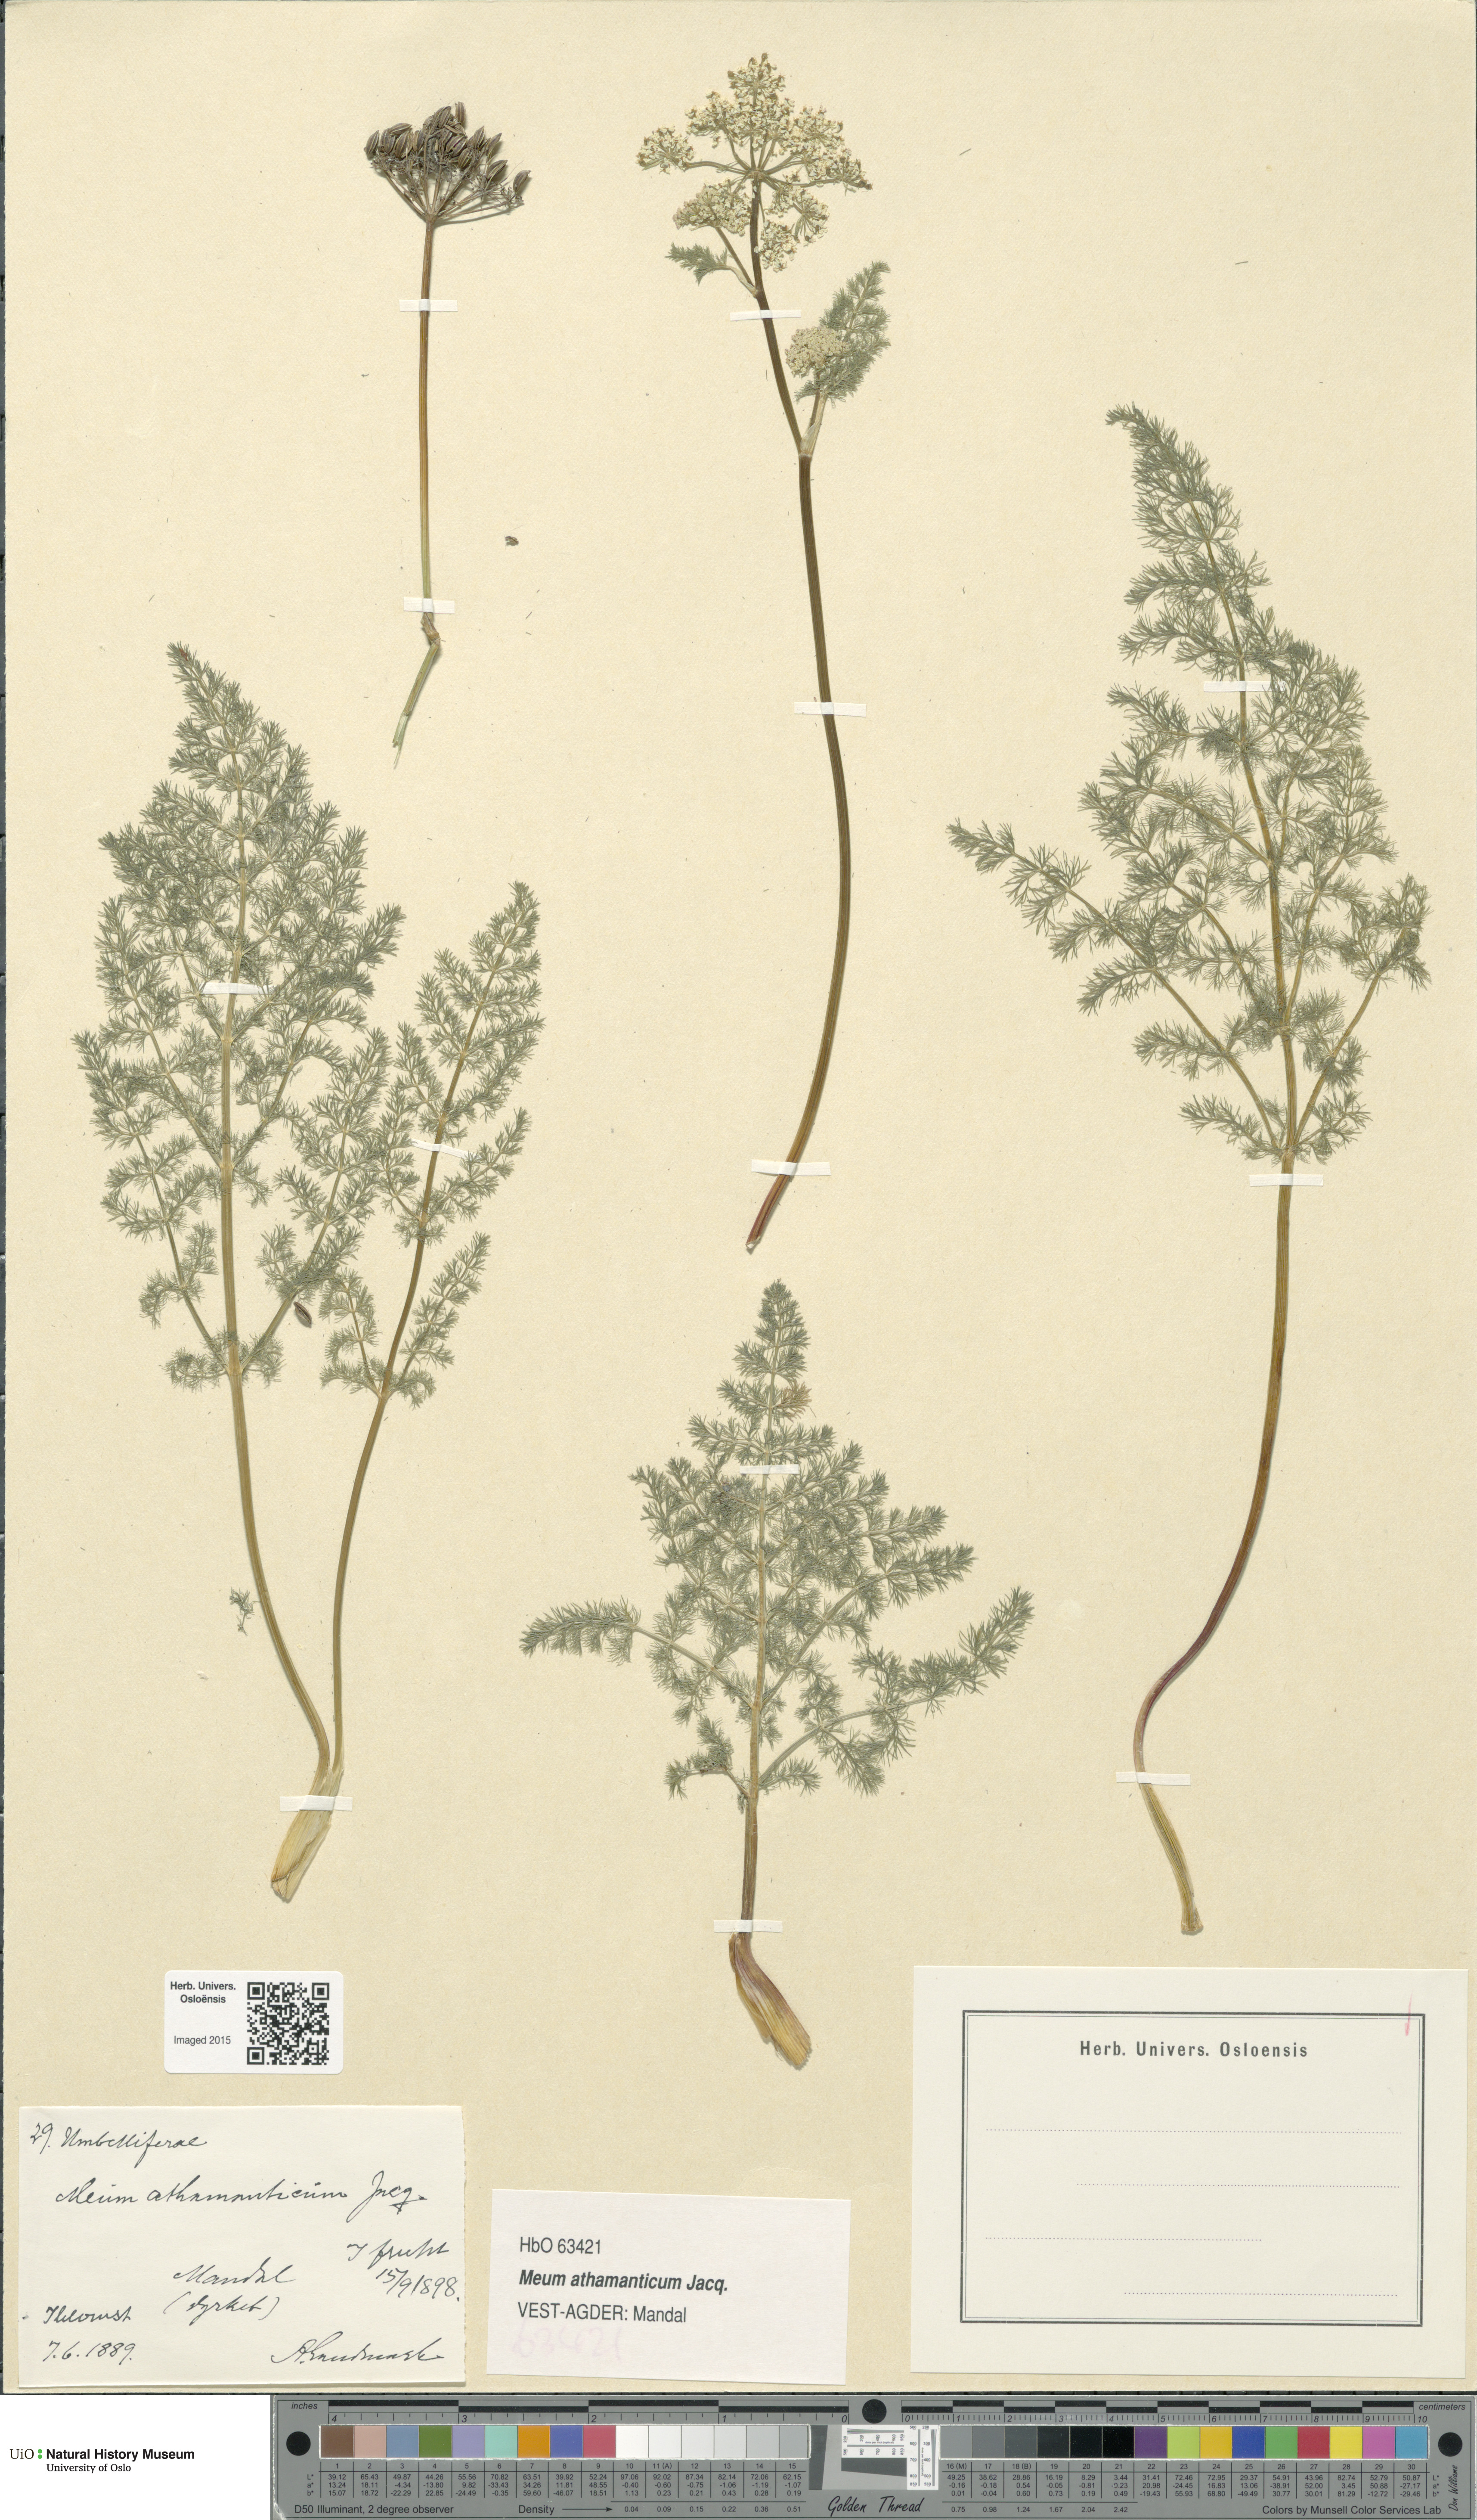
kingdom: Plantae
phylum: Tracheophyta
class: Magnoliopsida
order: Apiales
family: Apiaceae
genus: Meum
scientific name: Meum athamanticum
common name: Spignel
